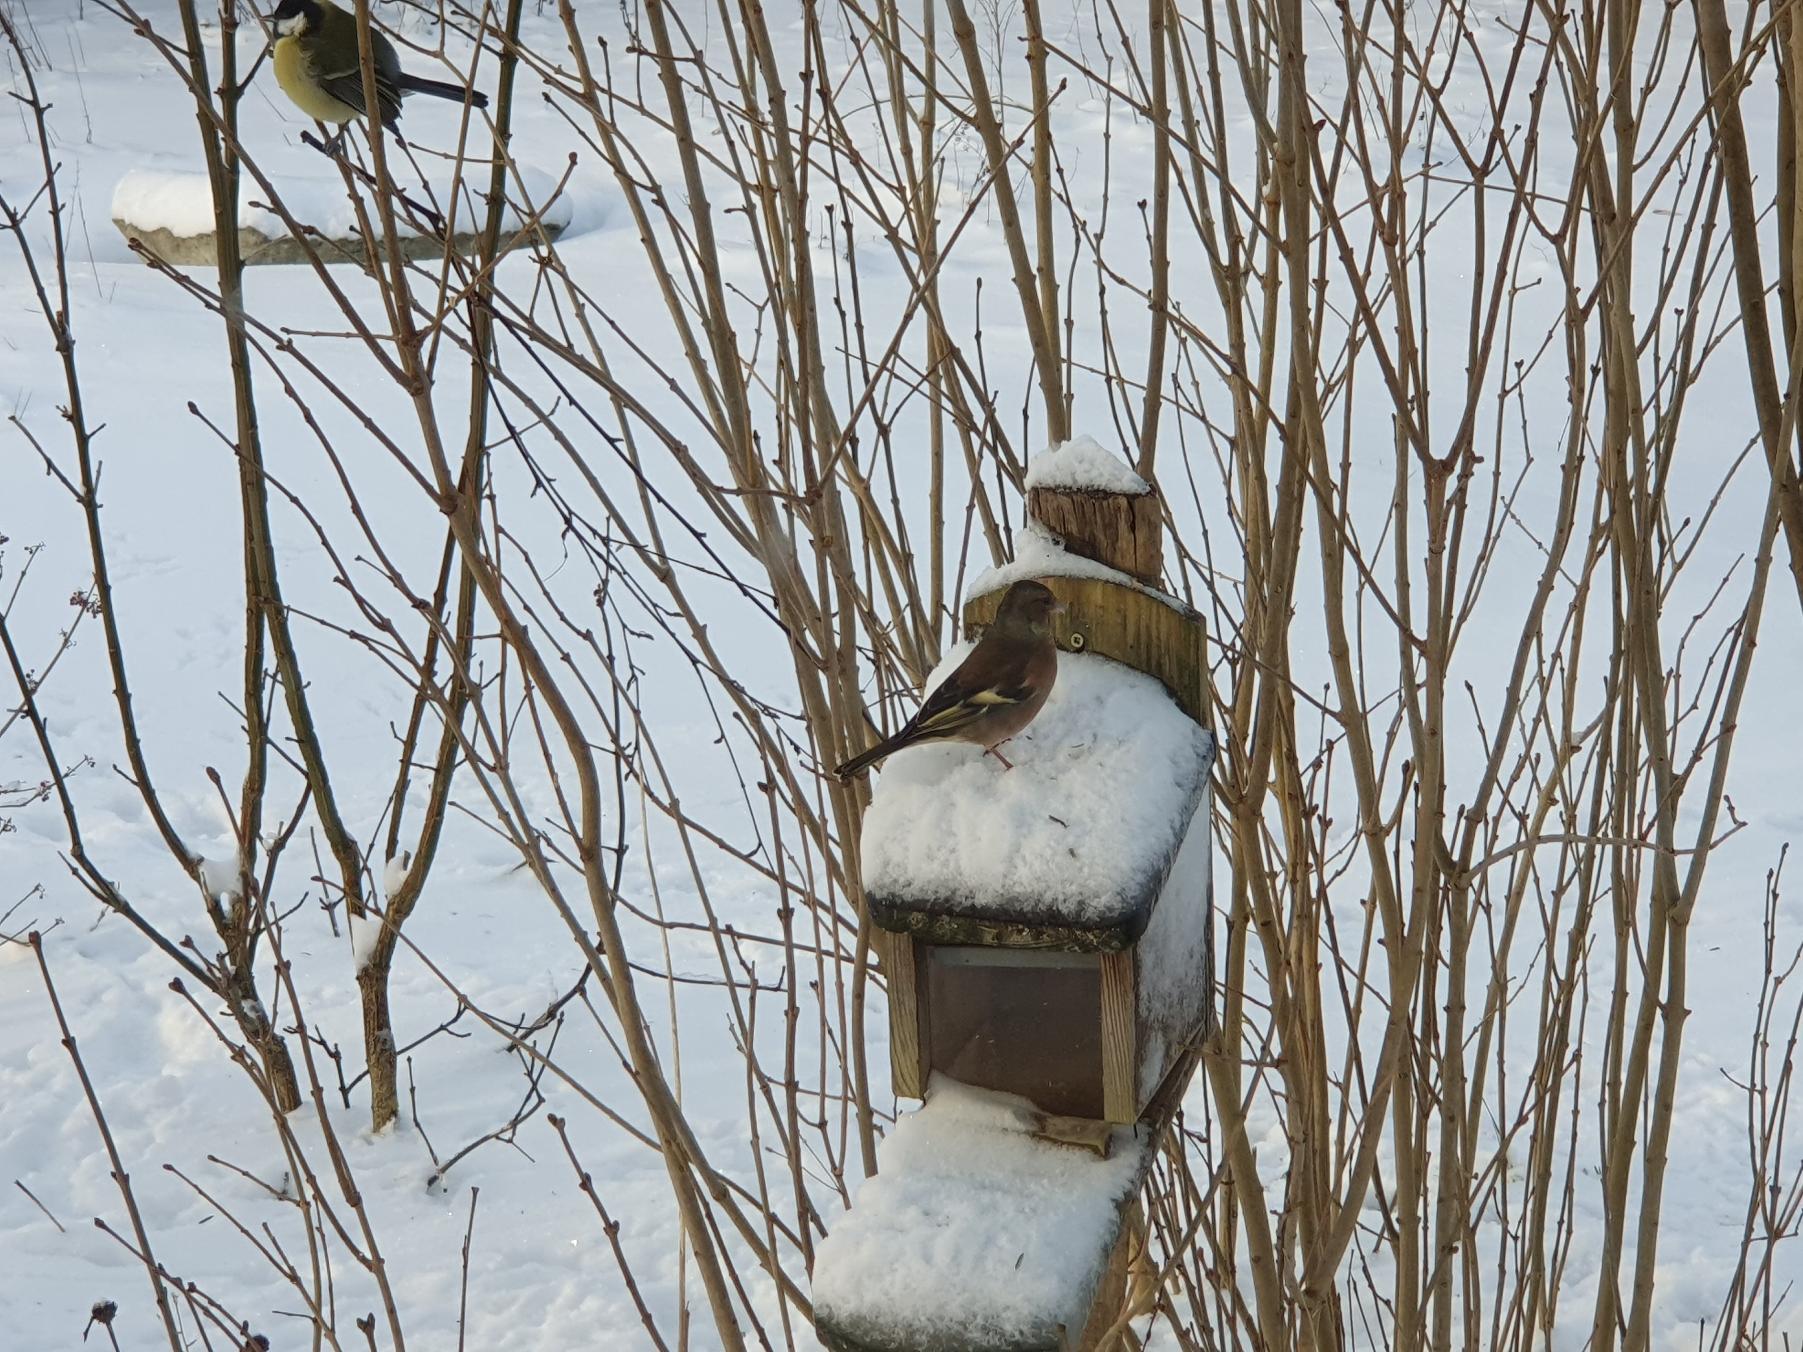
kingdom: Animalia
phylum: Chordata
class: Aves
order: Passeriformes
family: Fringillidae
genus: Fringilla
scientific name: Fringilla coelebs
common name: Bogfinke
